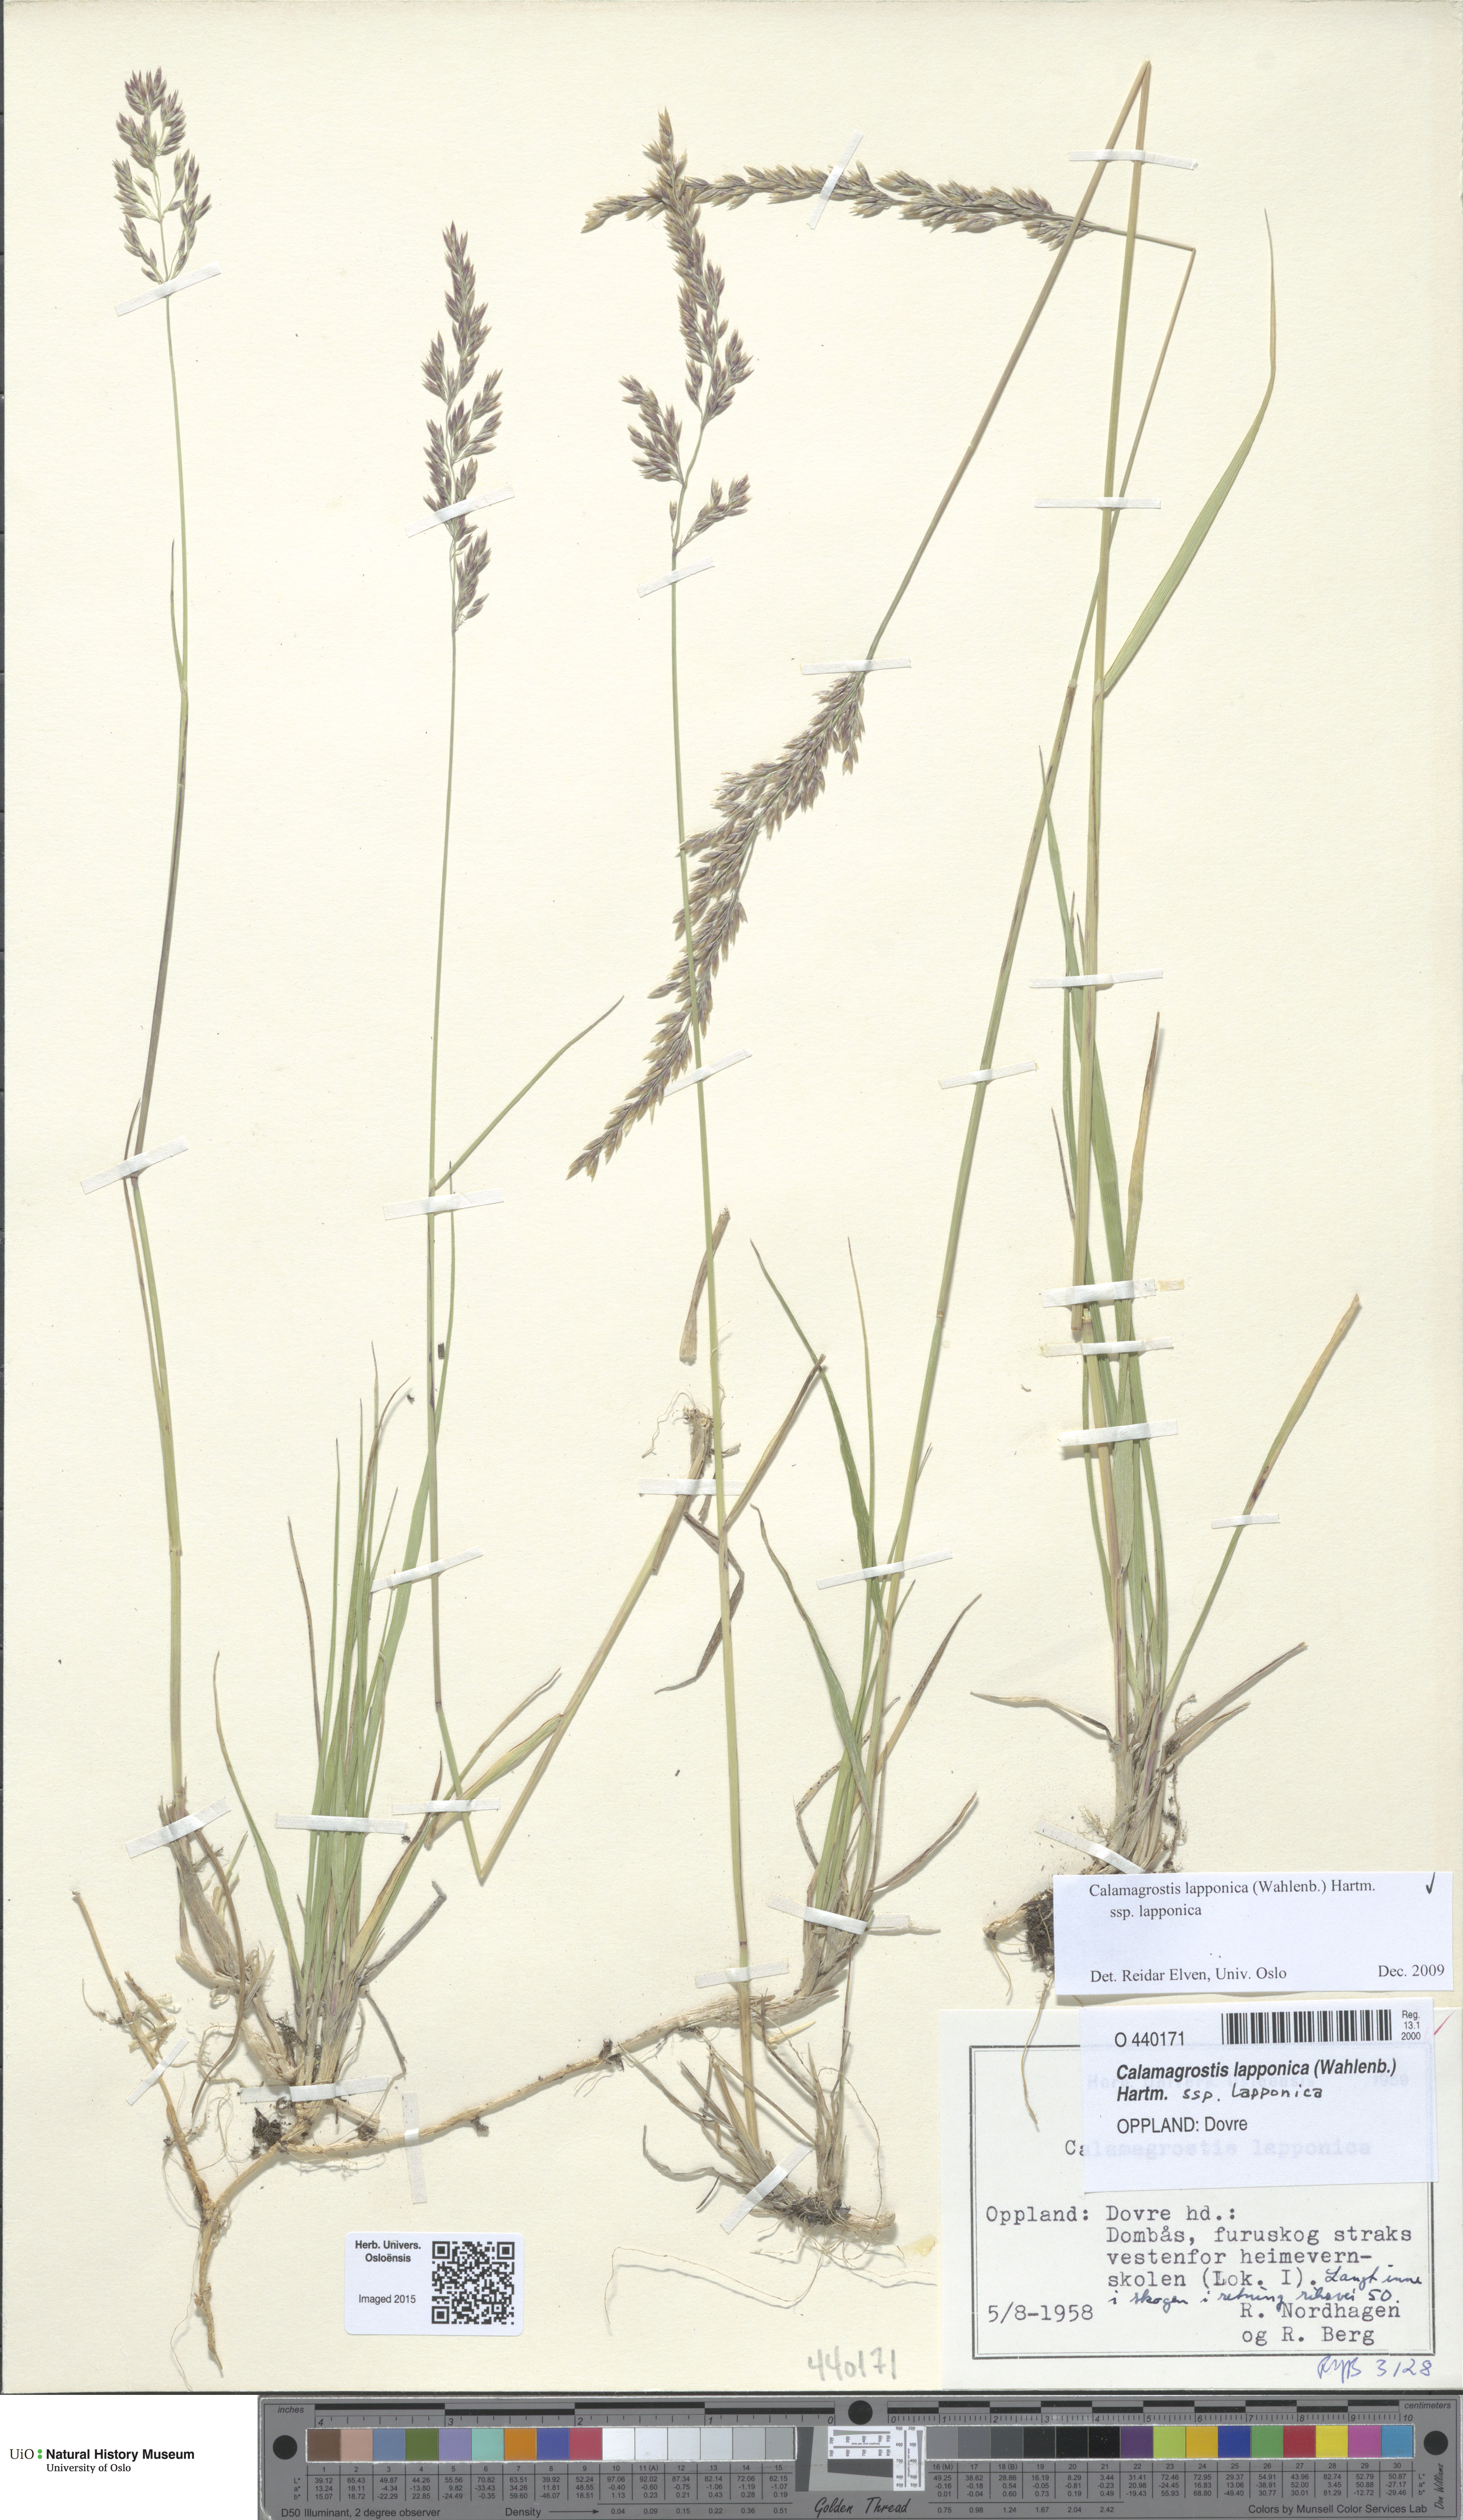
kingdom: Plantae
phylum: Tracheophyta
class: Liliopsida
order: Poales
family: Poaceae
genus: Calamagrostis
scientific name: Calamagrostis lapponica
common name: Lapland reedgrass
